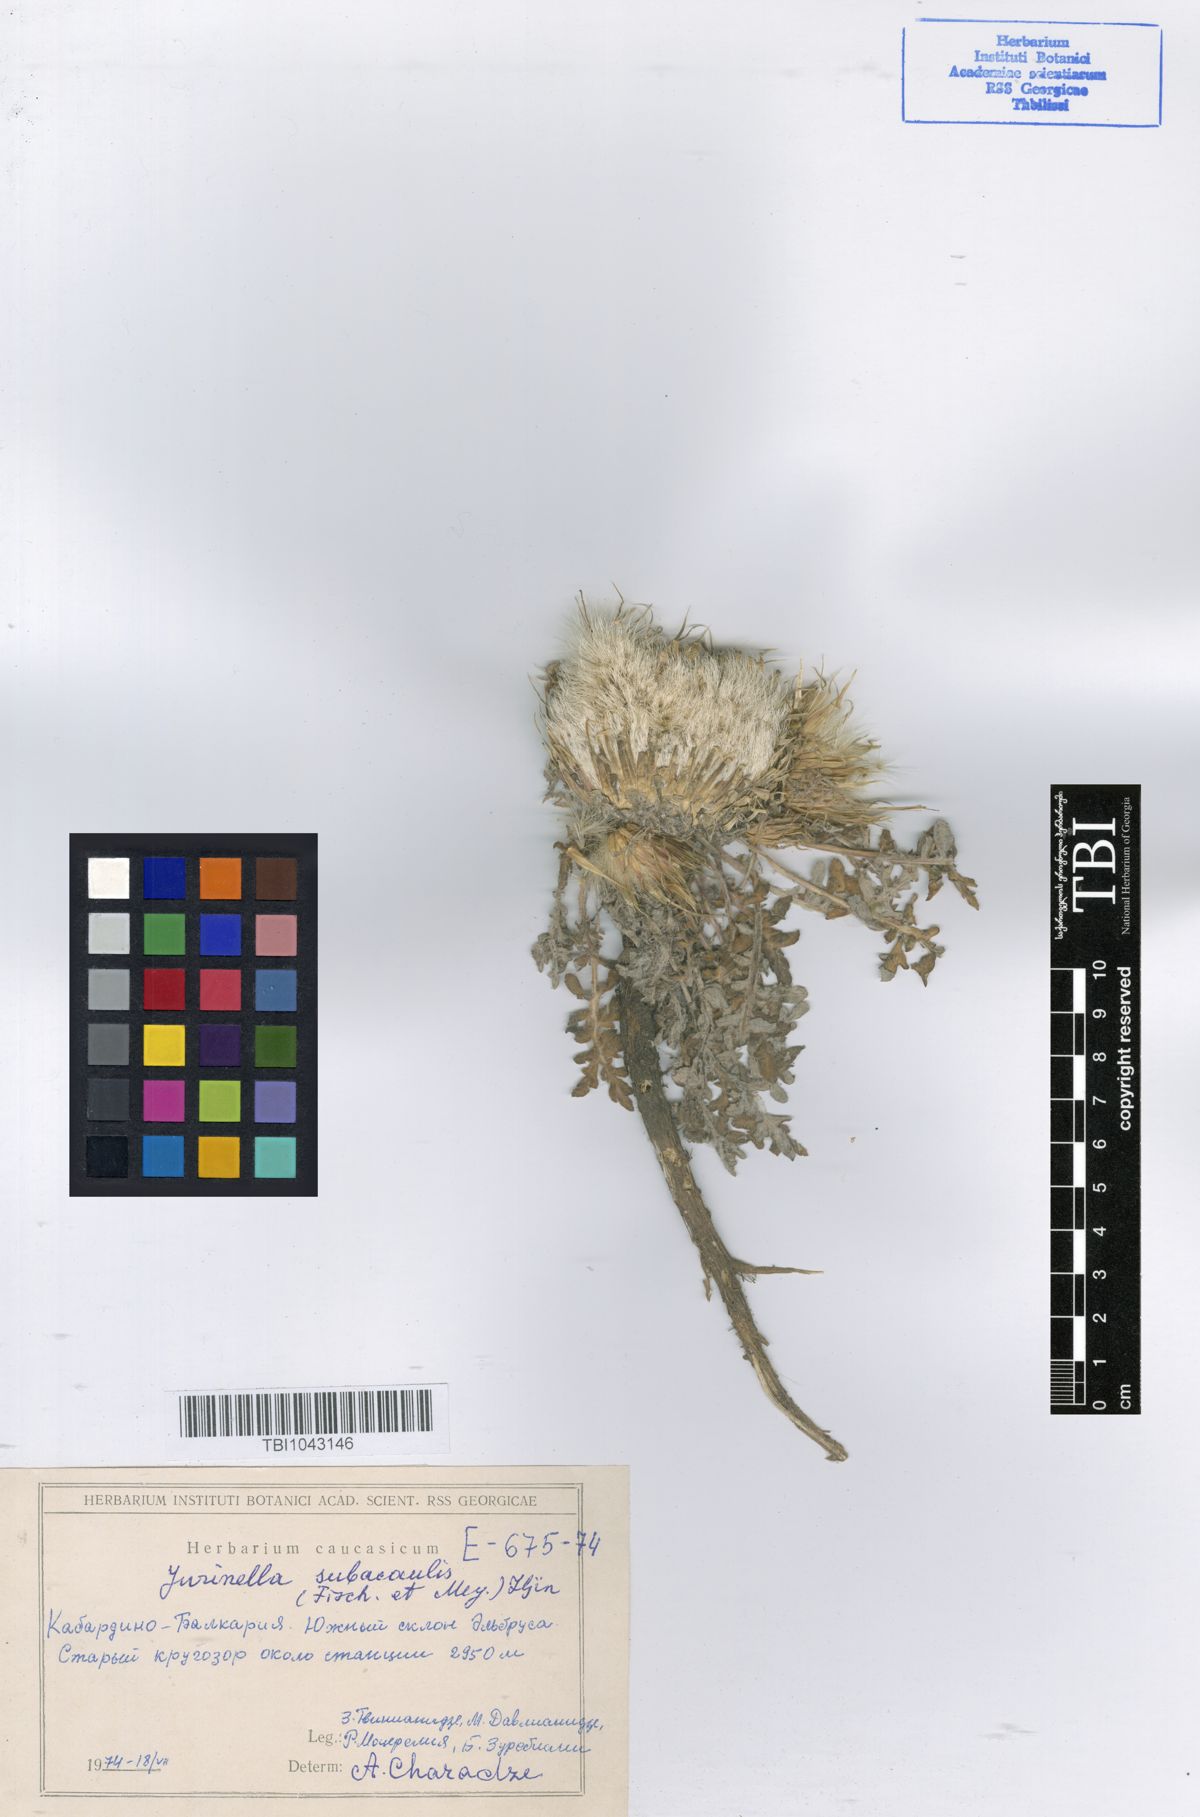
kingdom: Plantae
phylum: Tracheophyta
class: Magnoliopsida
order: Asterales
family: Asteraceae
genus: Jurinea
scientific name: Jurinea moschus
